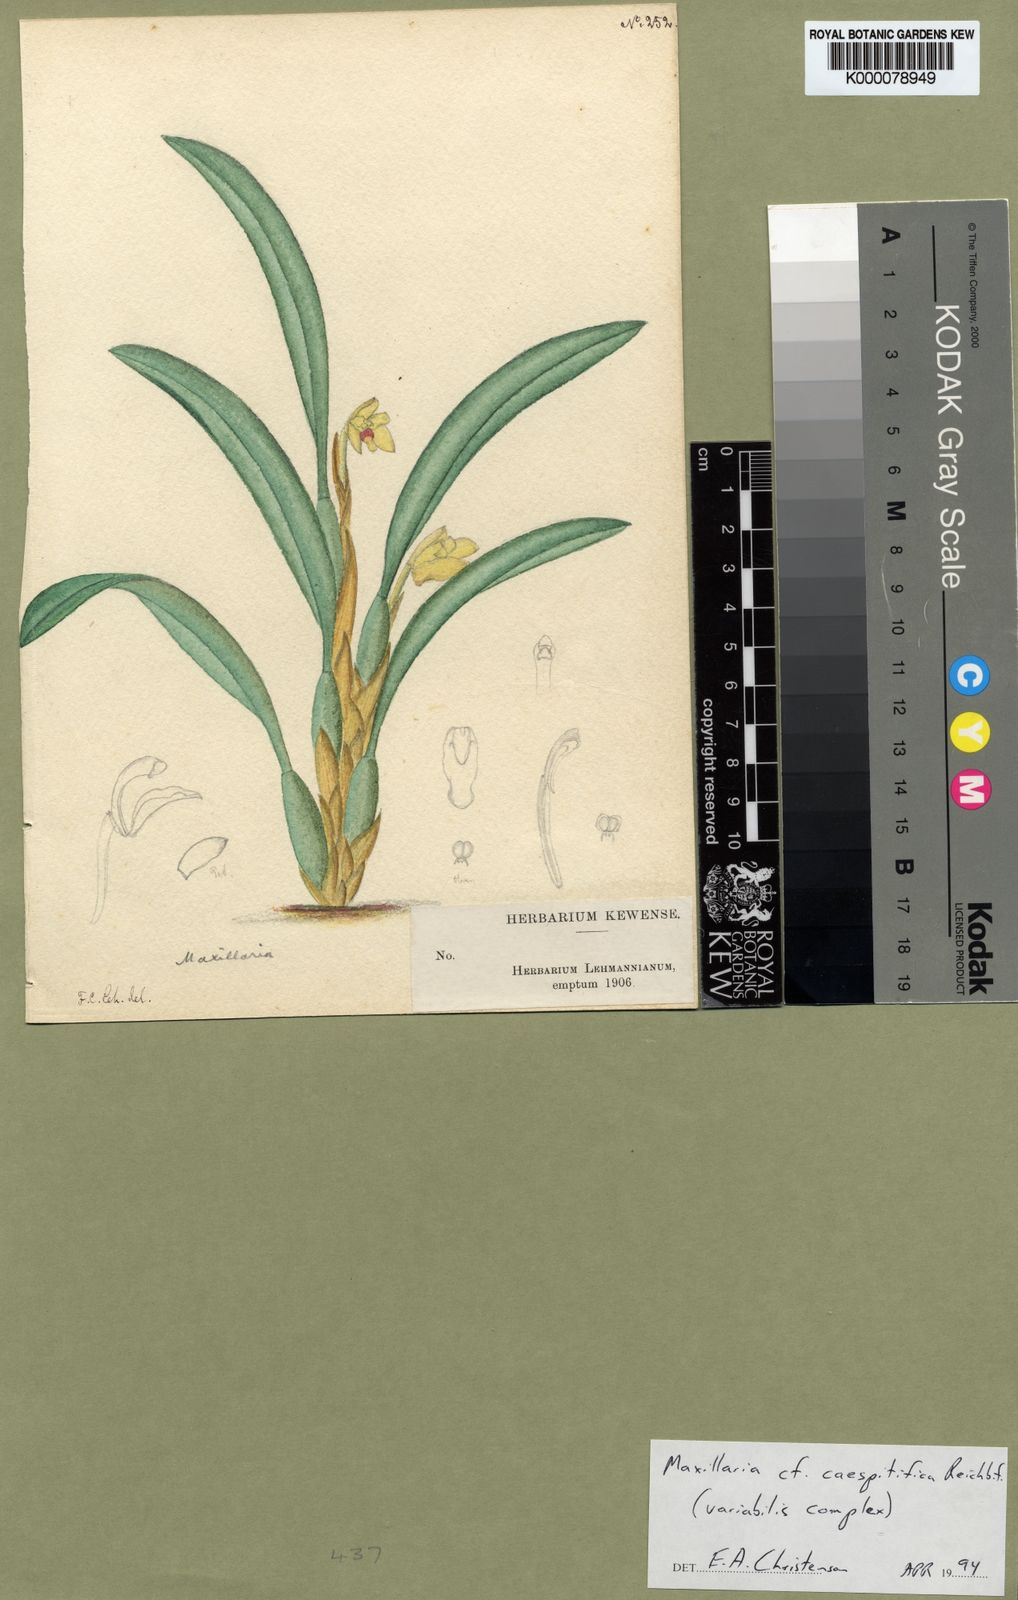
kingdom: Plantae
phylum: Tracheophyta
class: Liliopsida
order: Asparagales
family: Orchidaceae
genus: Maxillaria
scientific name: Maxillaria
